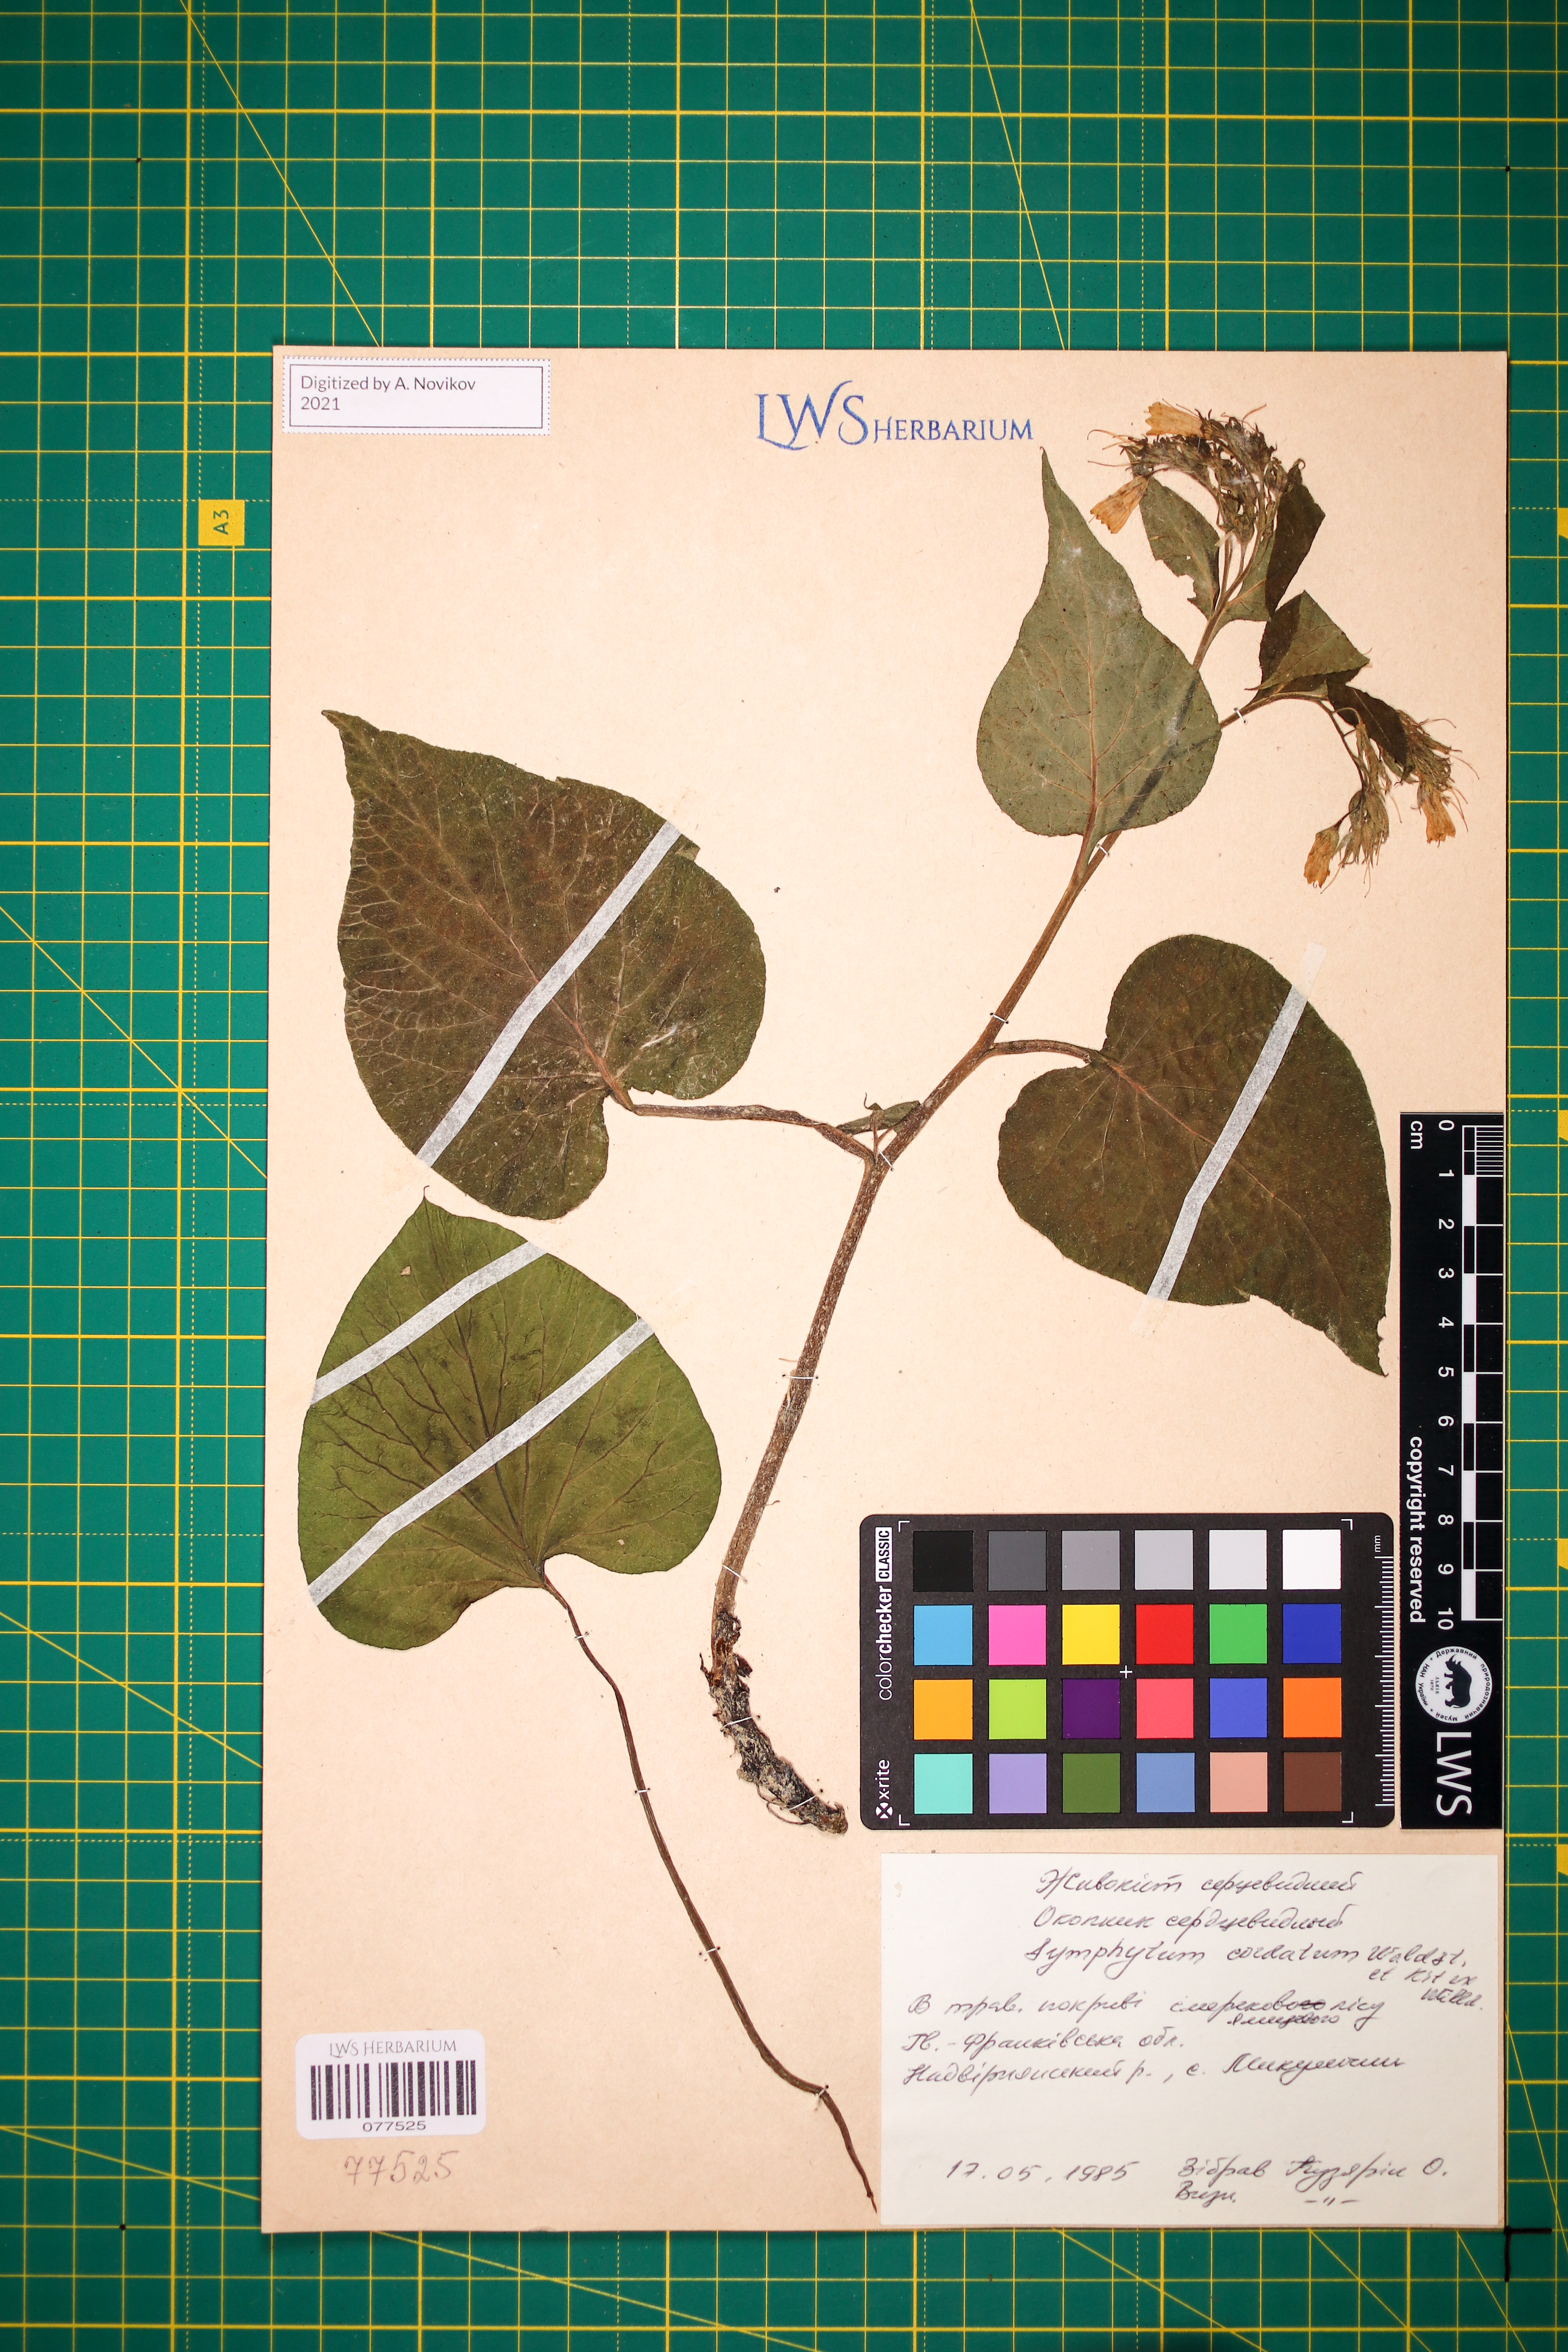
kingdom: Plantae
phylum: Tracheophyta
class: Magnoliopsida
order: Boraginales
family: Boraginaceae
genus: Symphytum
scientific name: Symphytum cordatum
